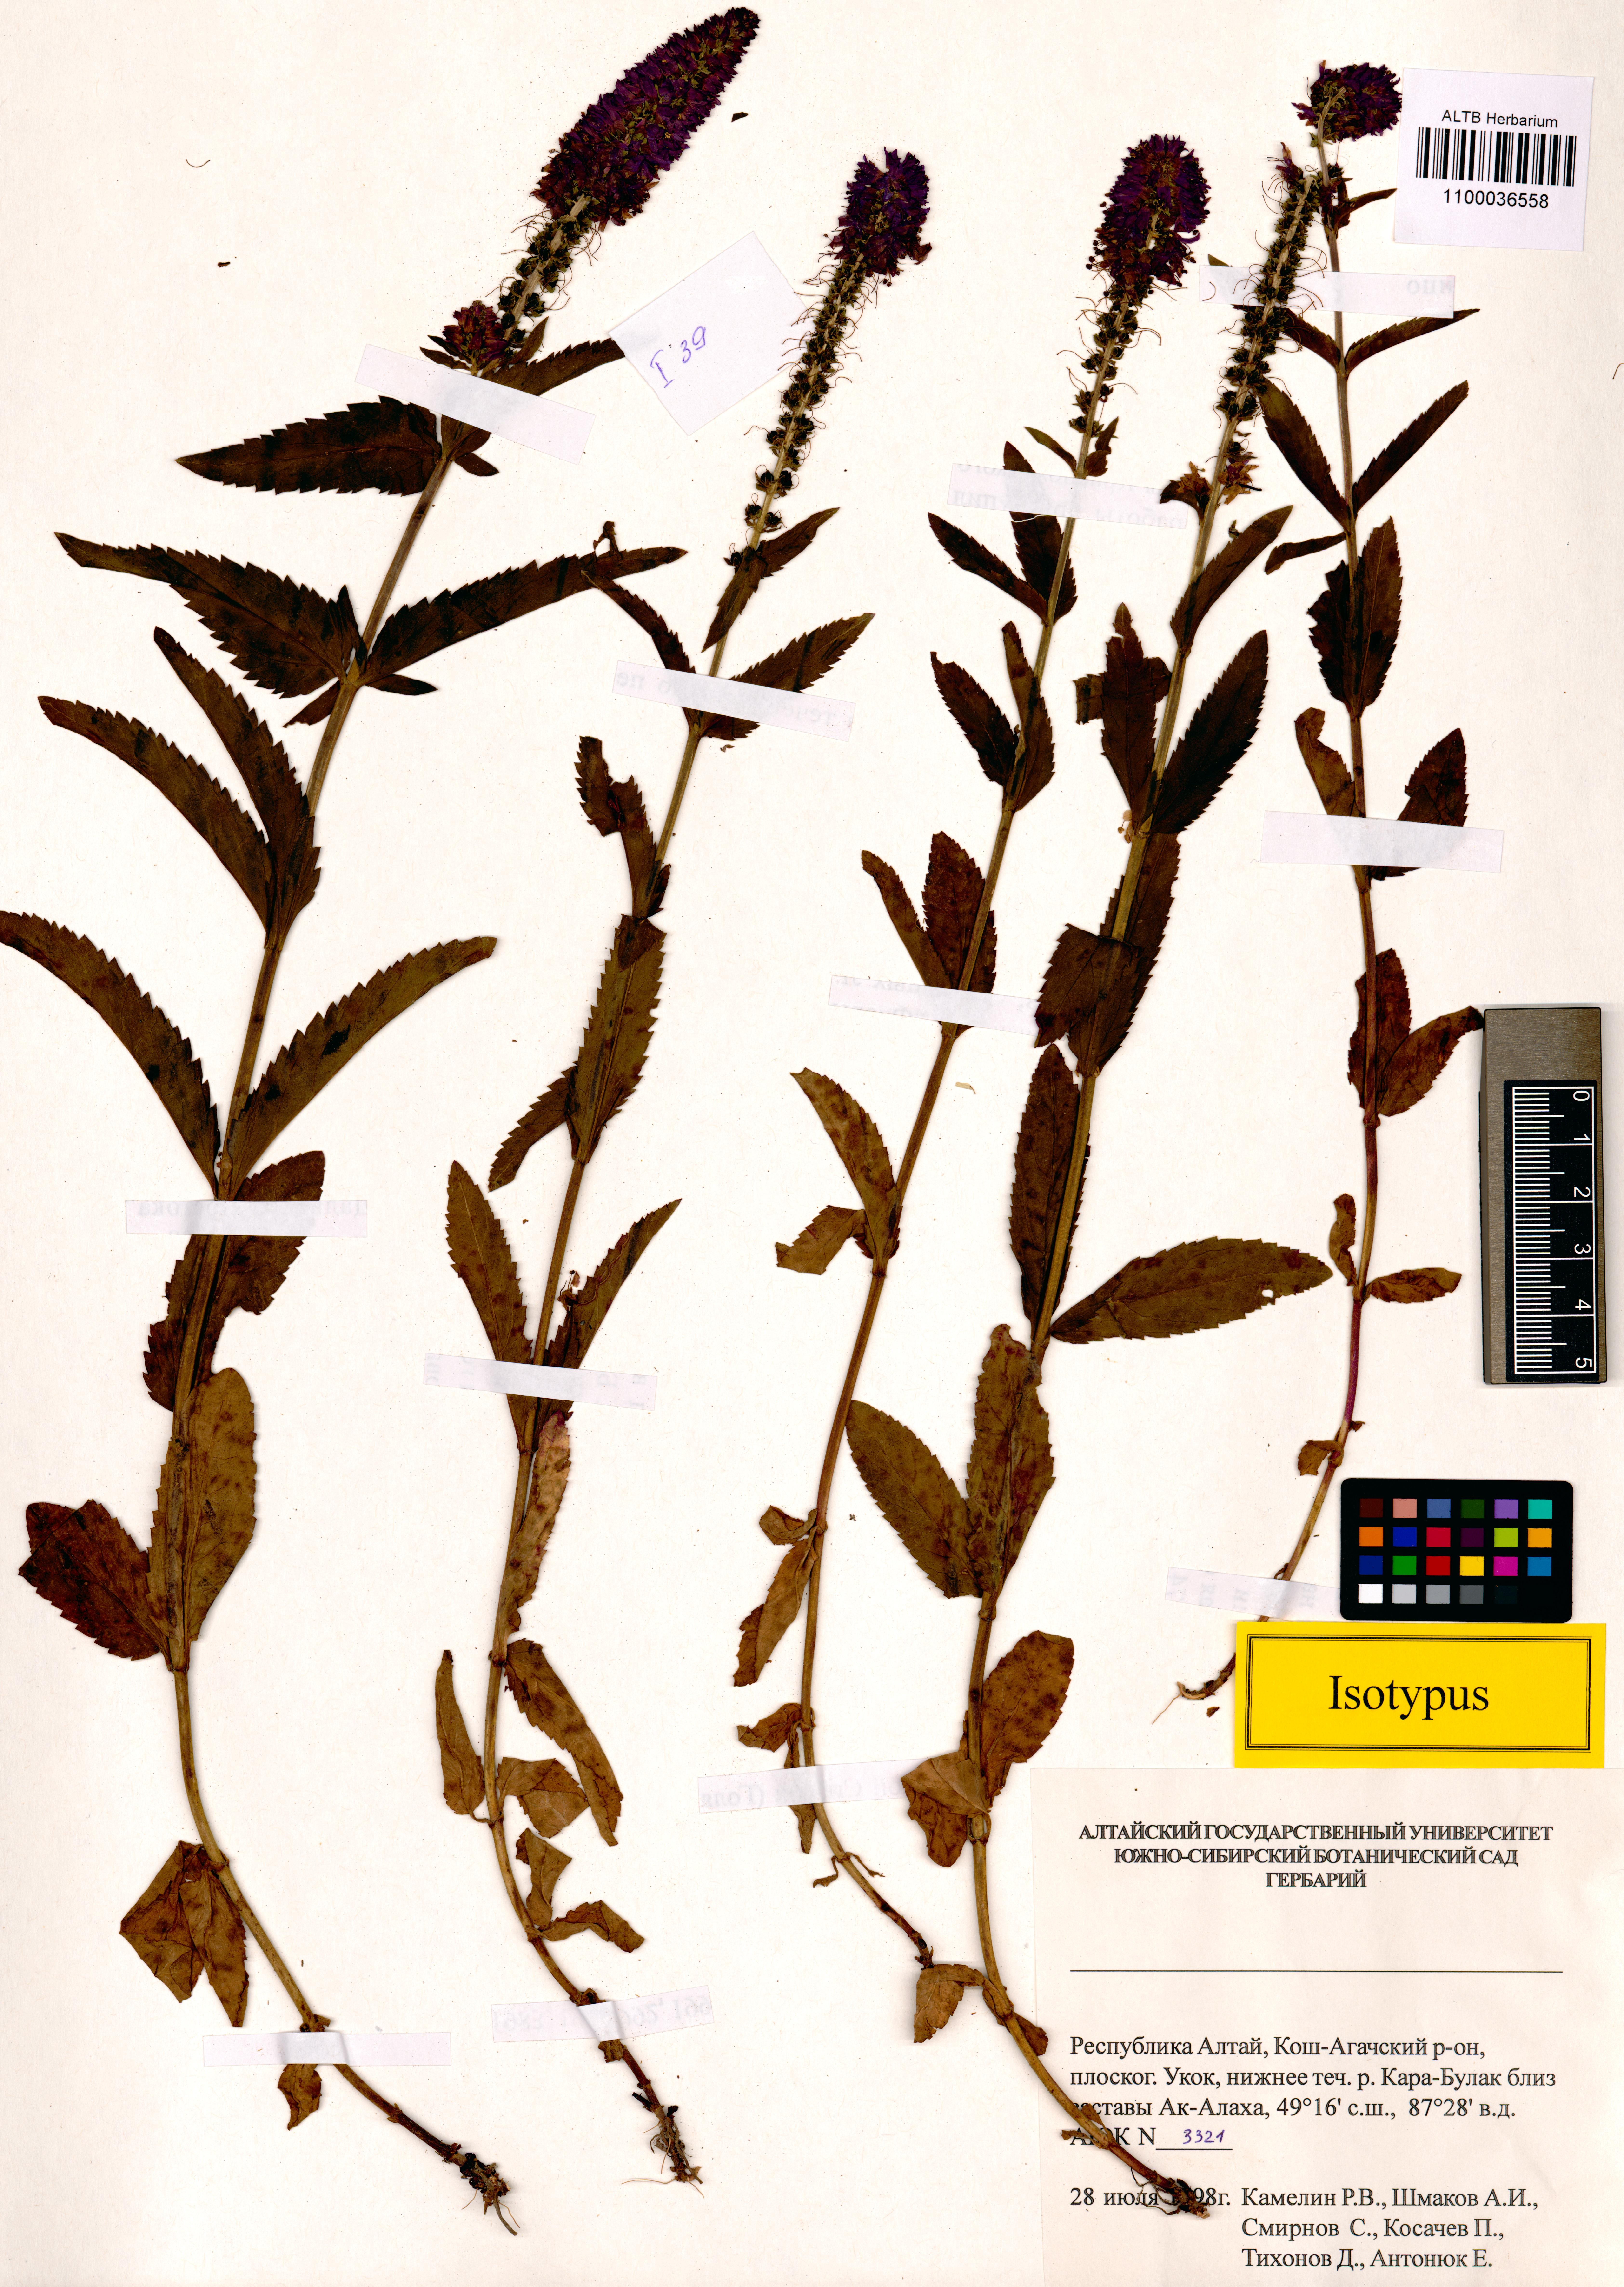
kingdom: Plantae
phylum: Tracheophyta
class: Magnoliopsida
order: Lamiales
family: Plantaginaceae
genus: Veronica
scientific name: Veronica schmakovii
